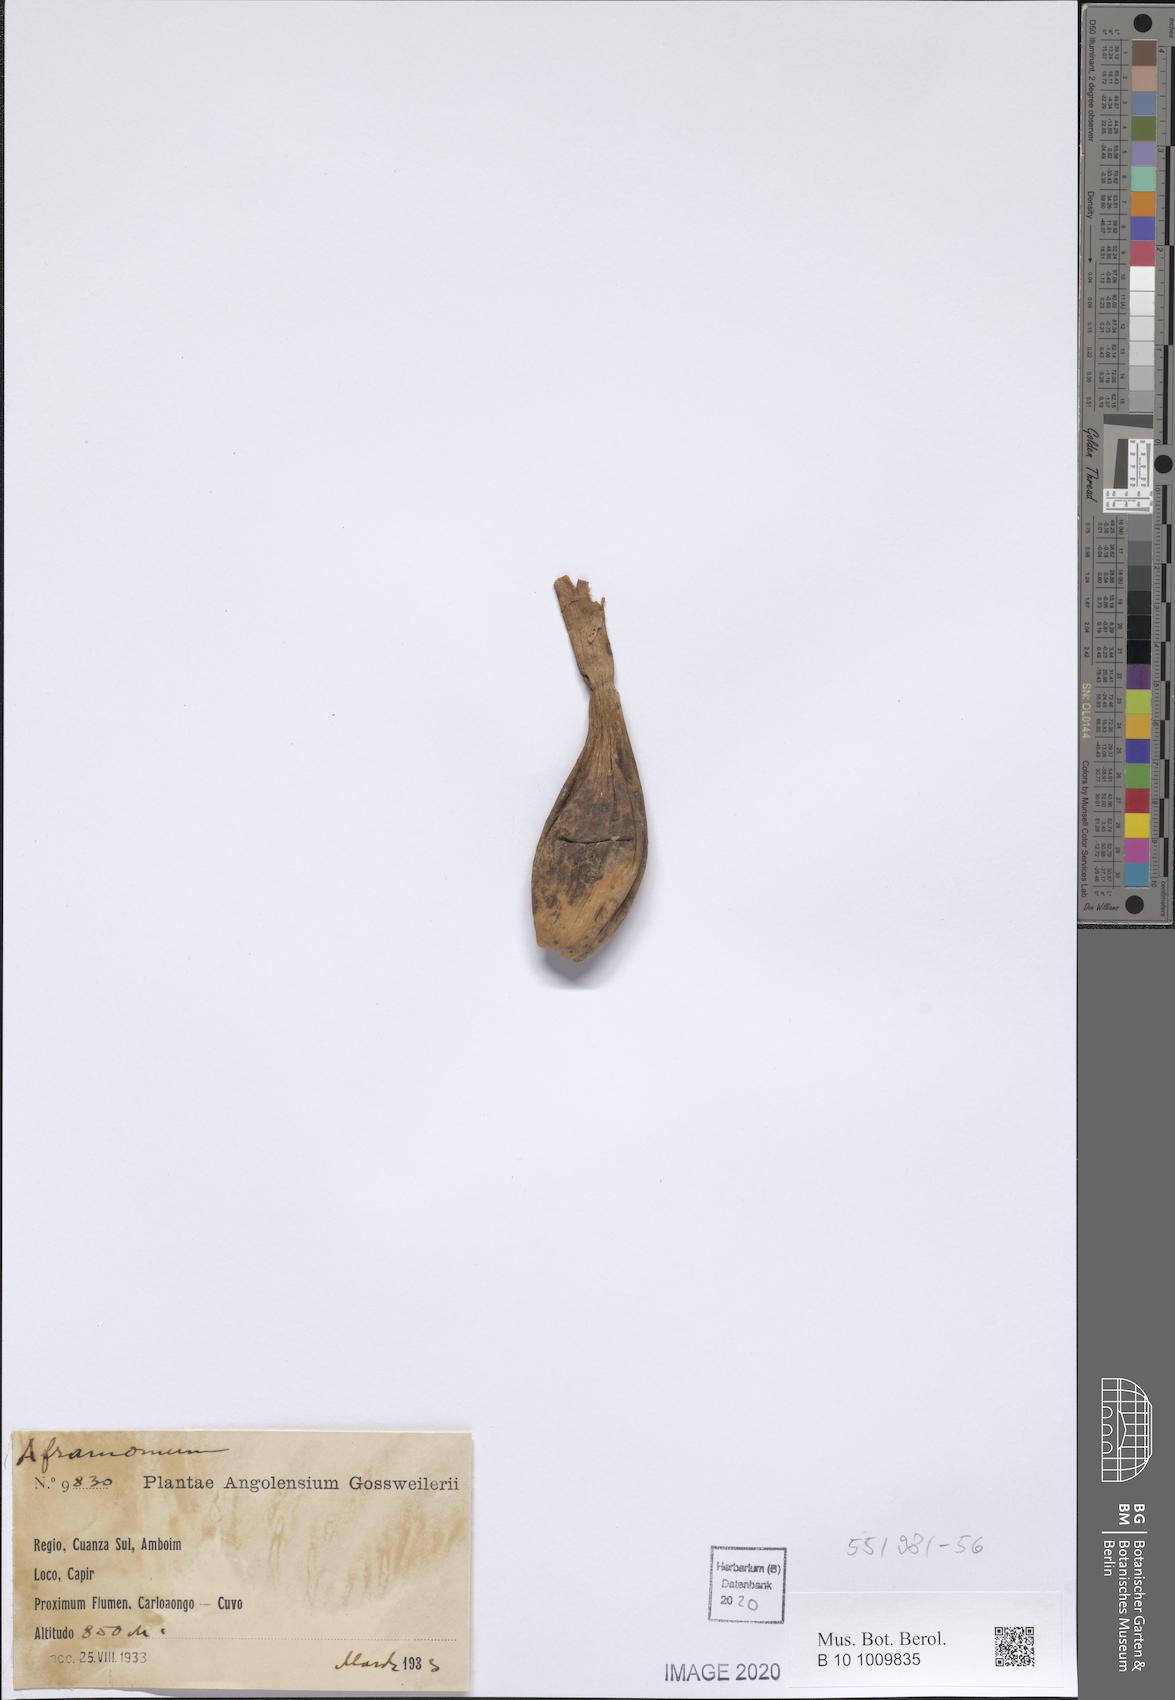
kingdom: Plantae
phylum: Tracheophyta
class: Liliopsida
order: Zingiberales
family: Zingiberaceae
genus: Aframomum
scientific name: Aframomum
